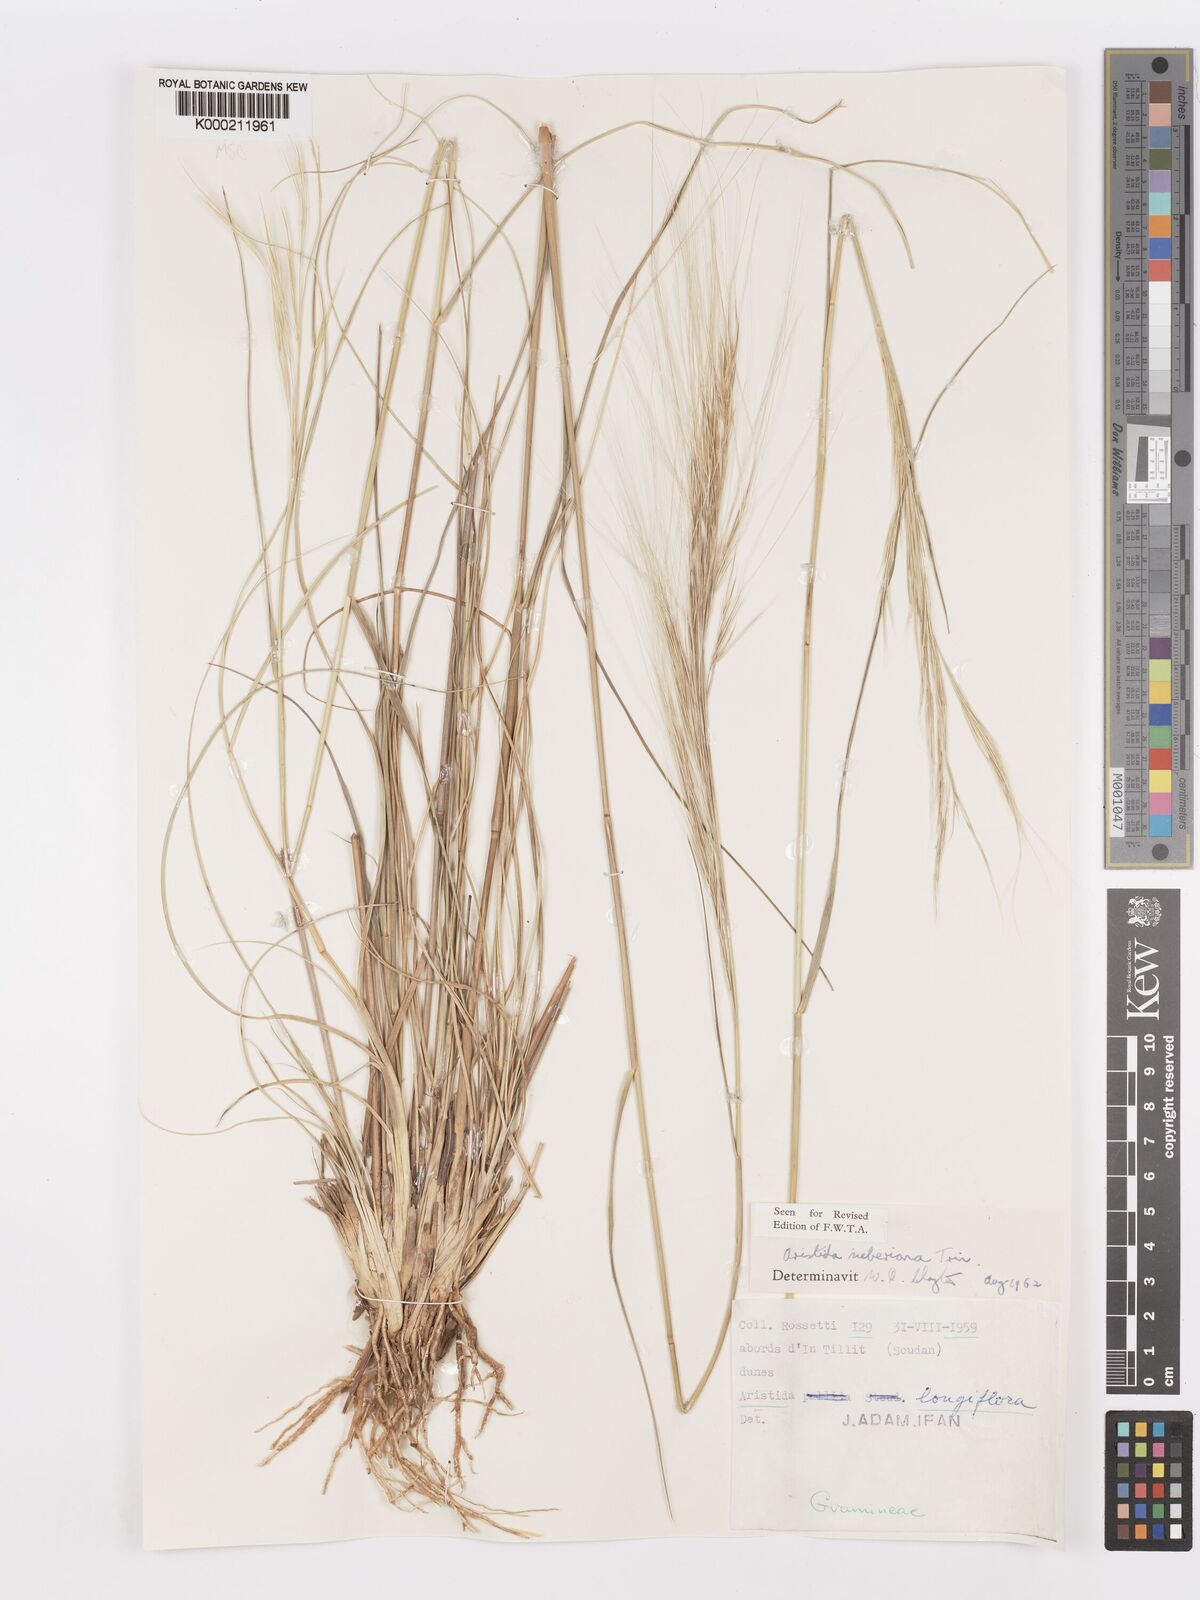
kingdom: Plantae
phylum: Tracheophyta
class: Liliopsida
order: Poales
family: Poaceae
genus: Aristida
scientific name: Aristida sieberiana
